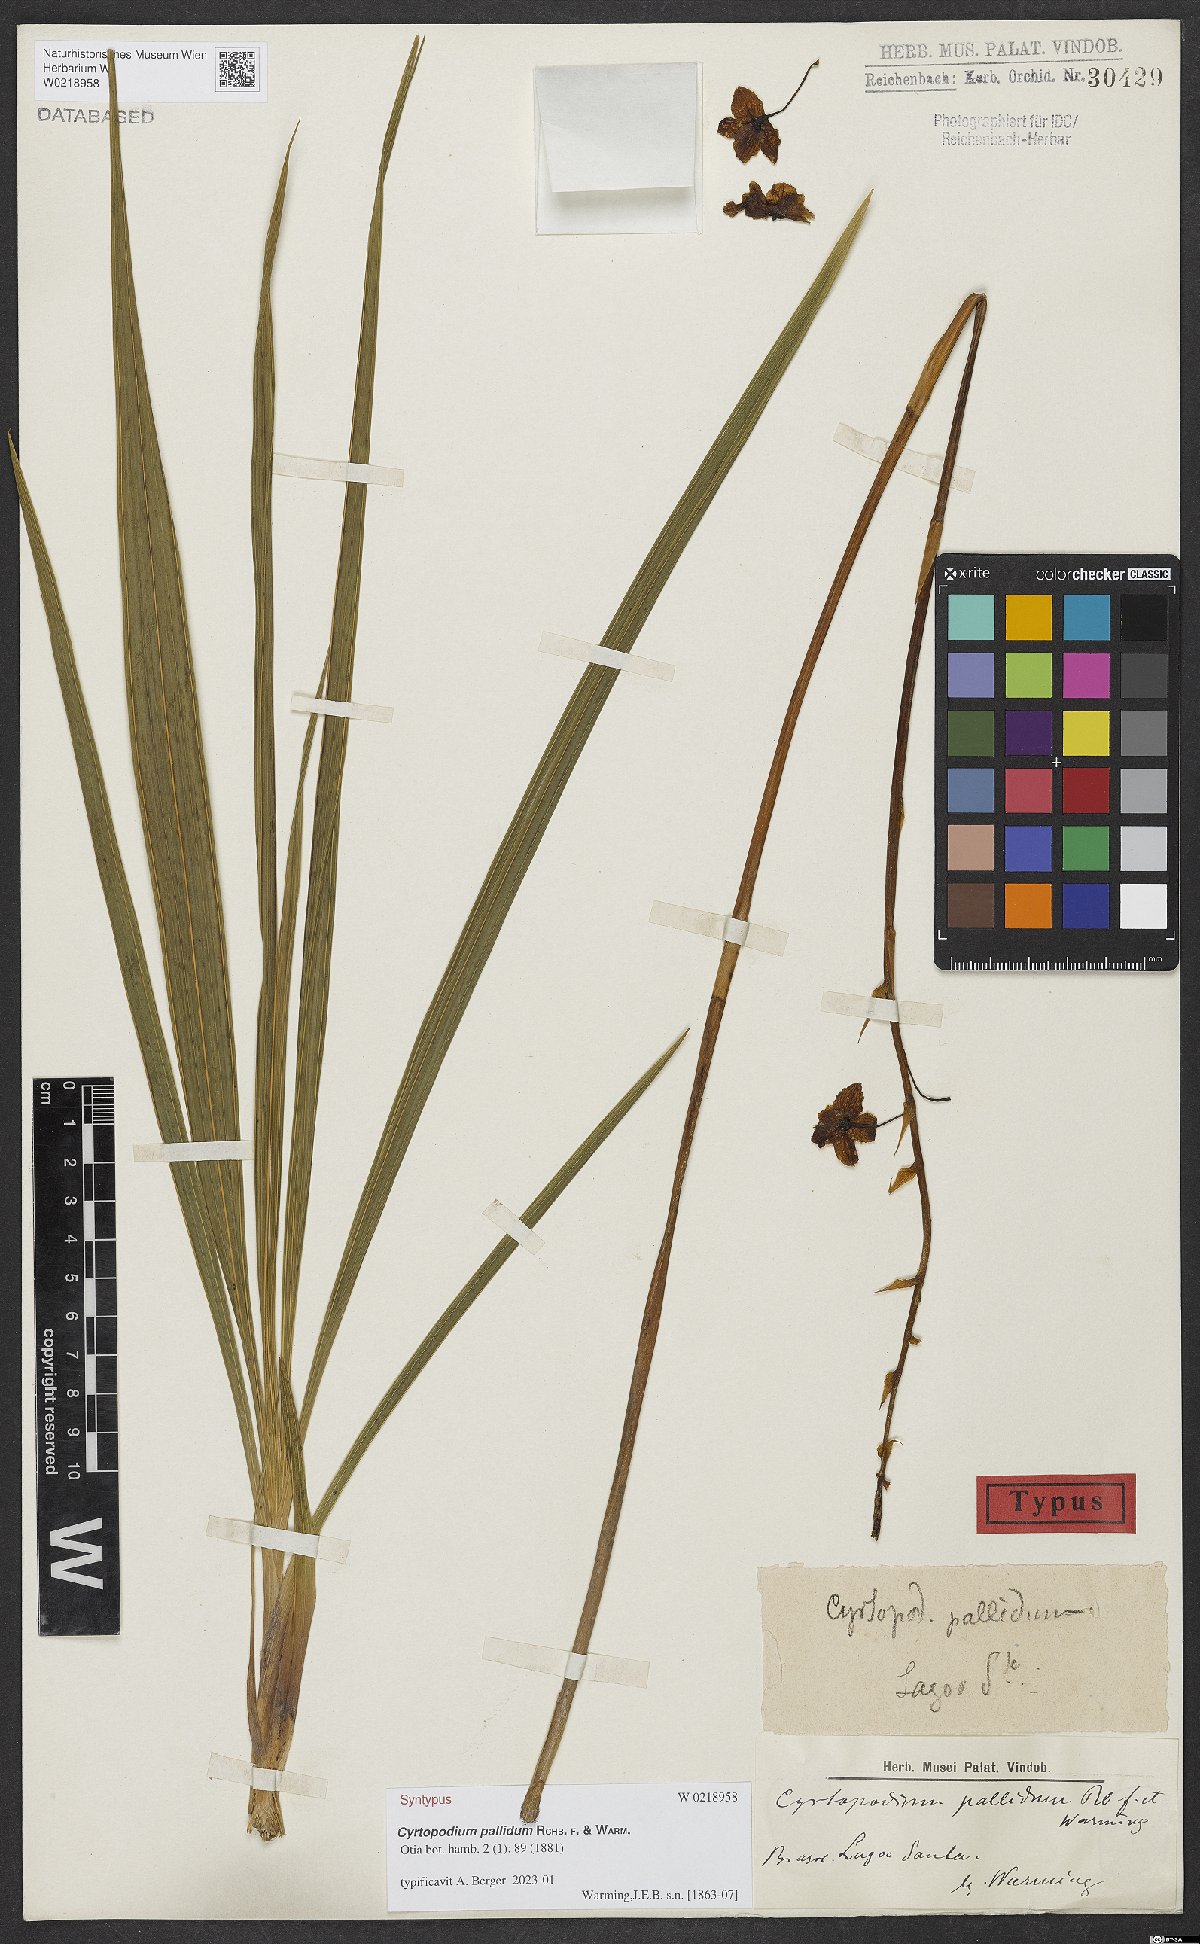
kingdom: Plantae
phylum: Tracheophyta
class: Liliopsida
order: Asparagales
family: Orchidaceae
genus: Cyrtopodium
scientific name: Cyrtopodium pallidum
